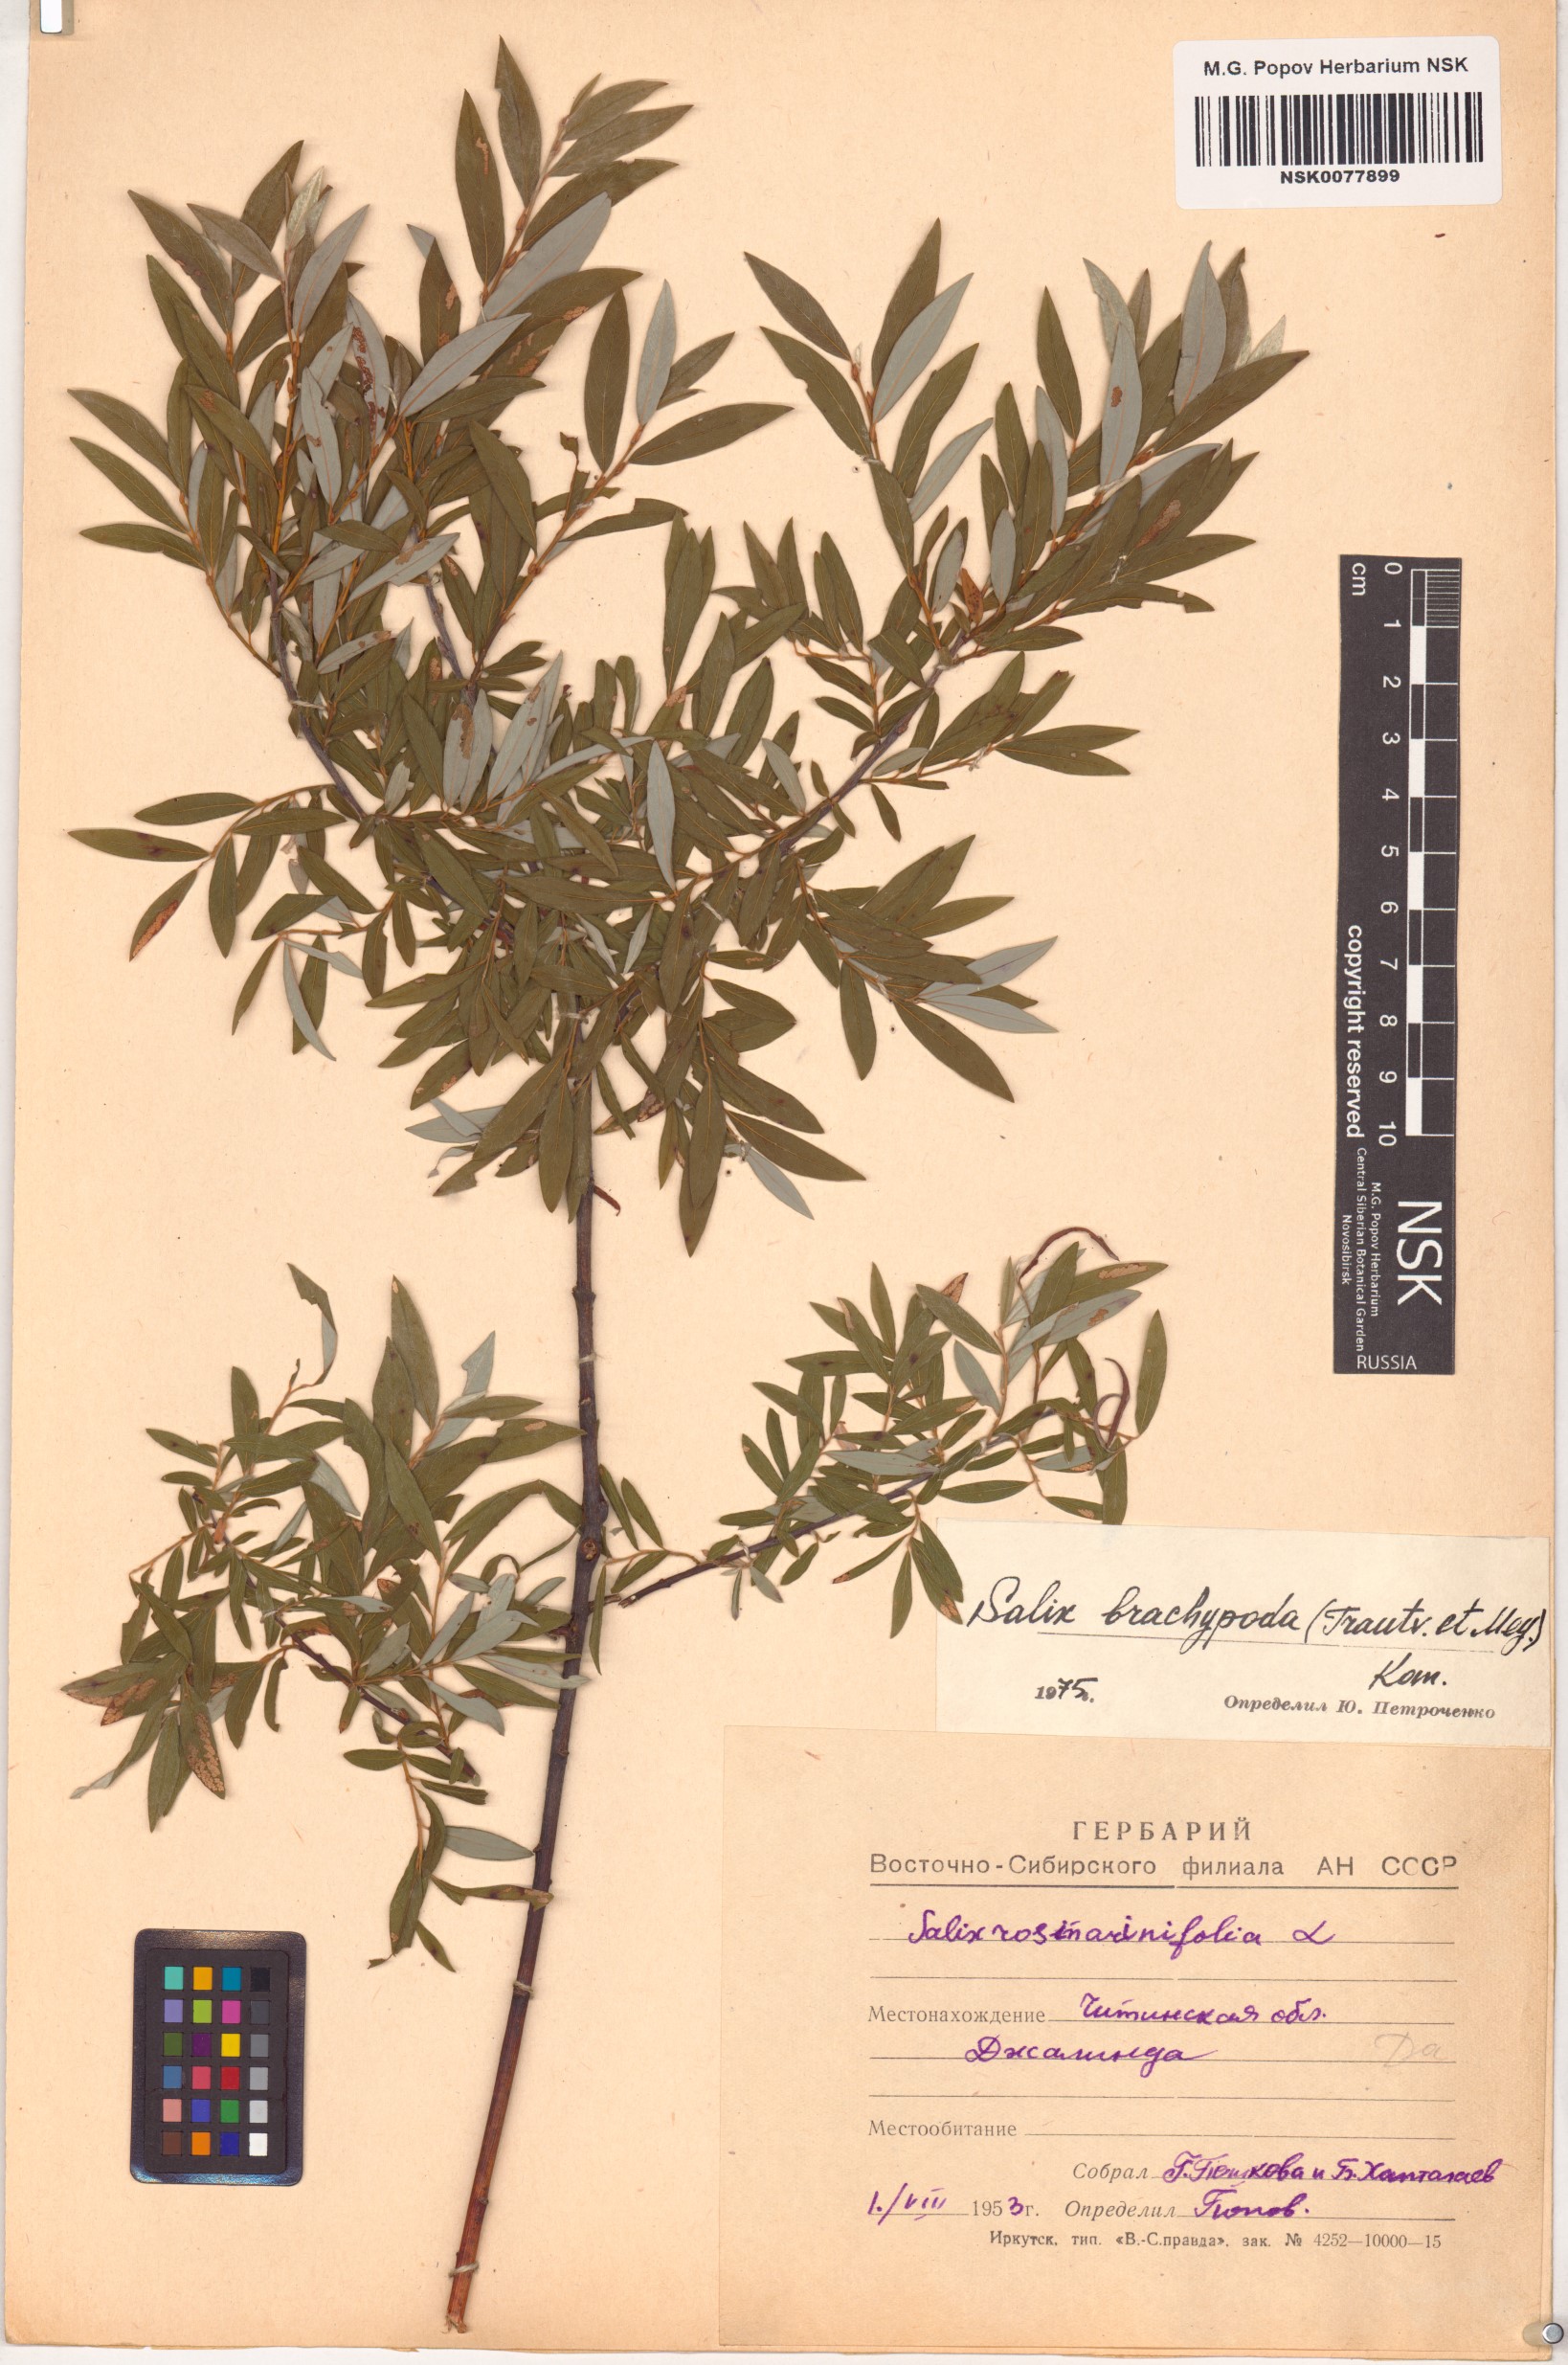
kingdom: Plantae
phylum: Tracheophyta
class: Magnoliopsida
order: Malpighiales
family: Salicaceae
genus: Salix
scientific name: Salix brachypoda
